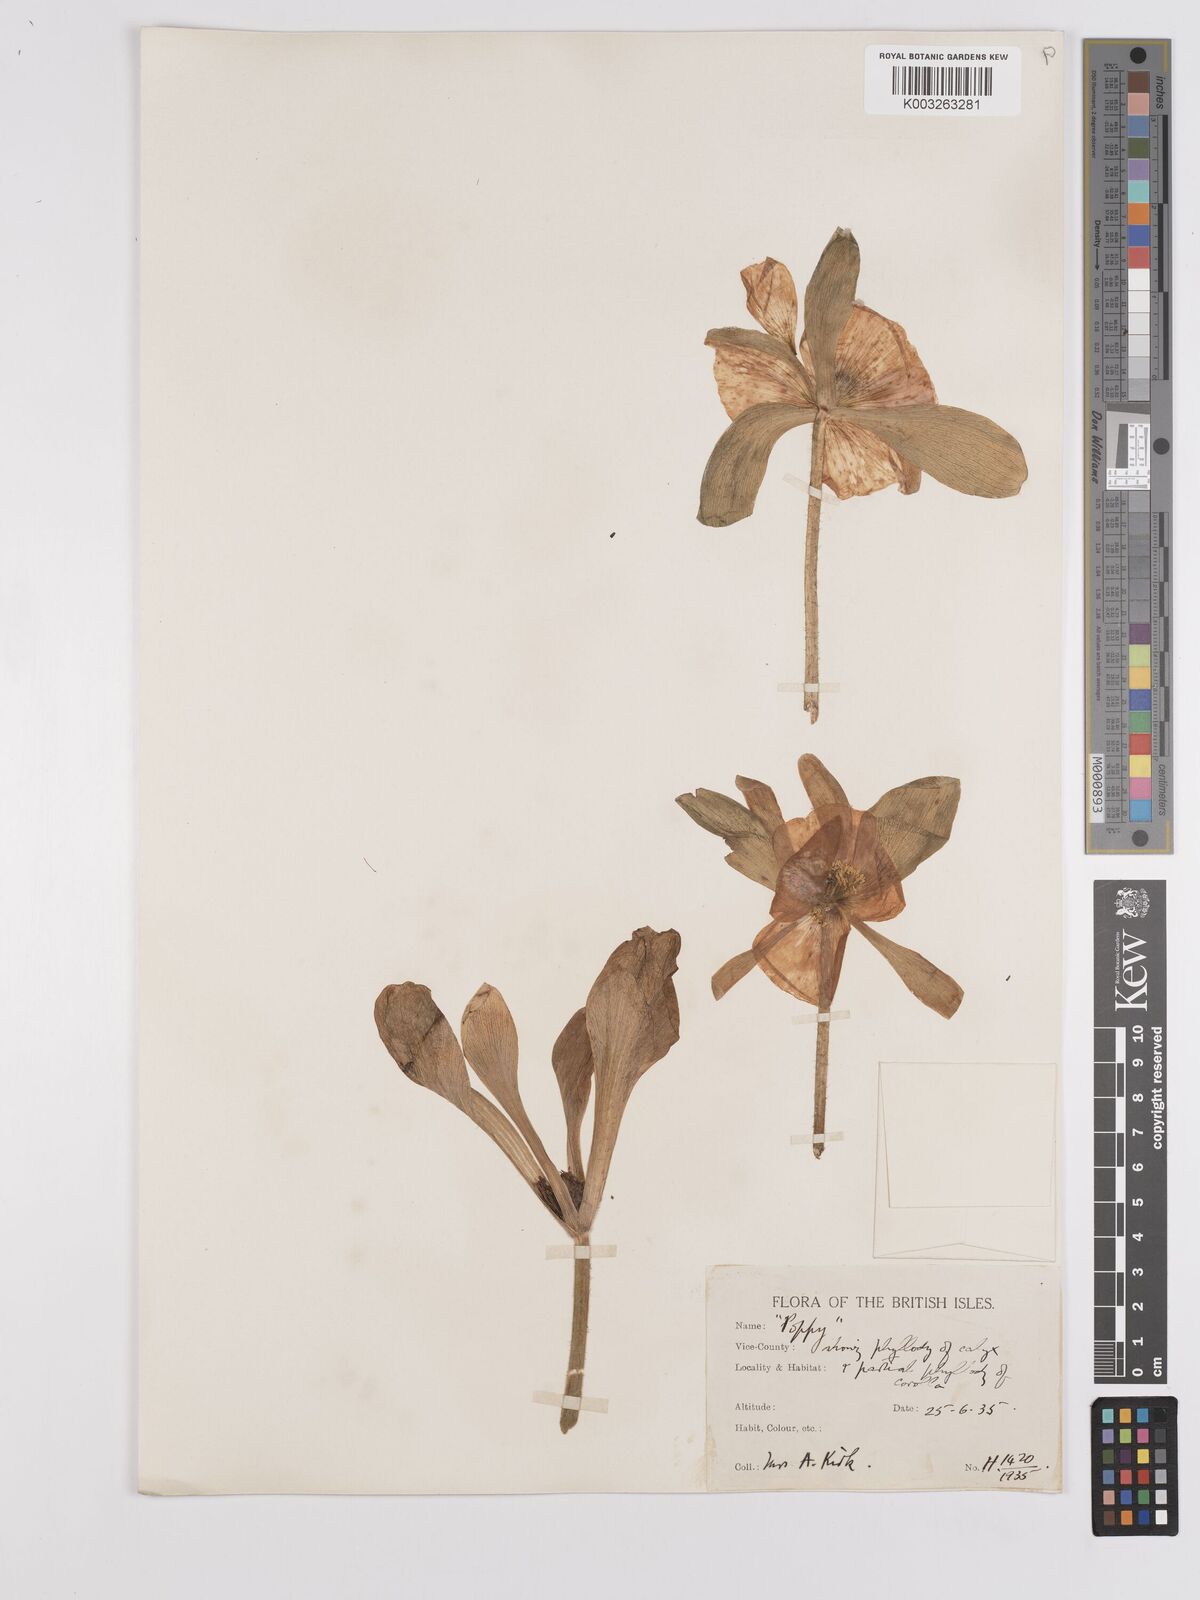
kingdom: Plantae
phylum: Tracheophyta
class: Magnoliopsida
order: Ranunculales
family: Papaveraceae
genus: Papaver
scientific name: Papaver
